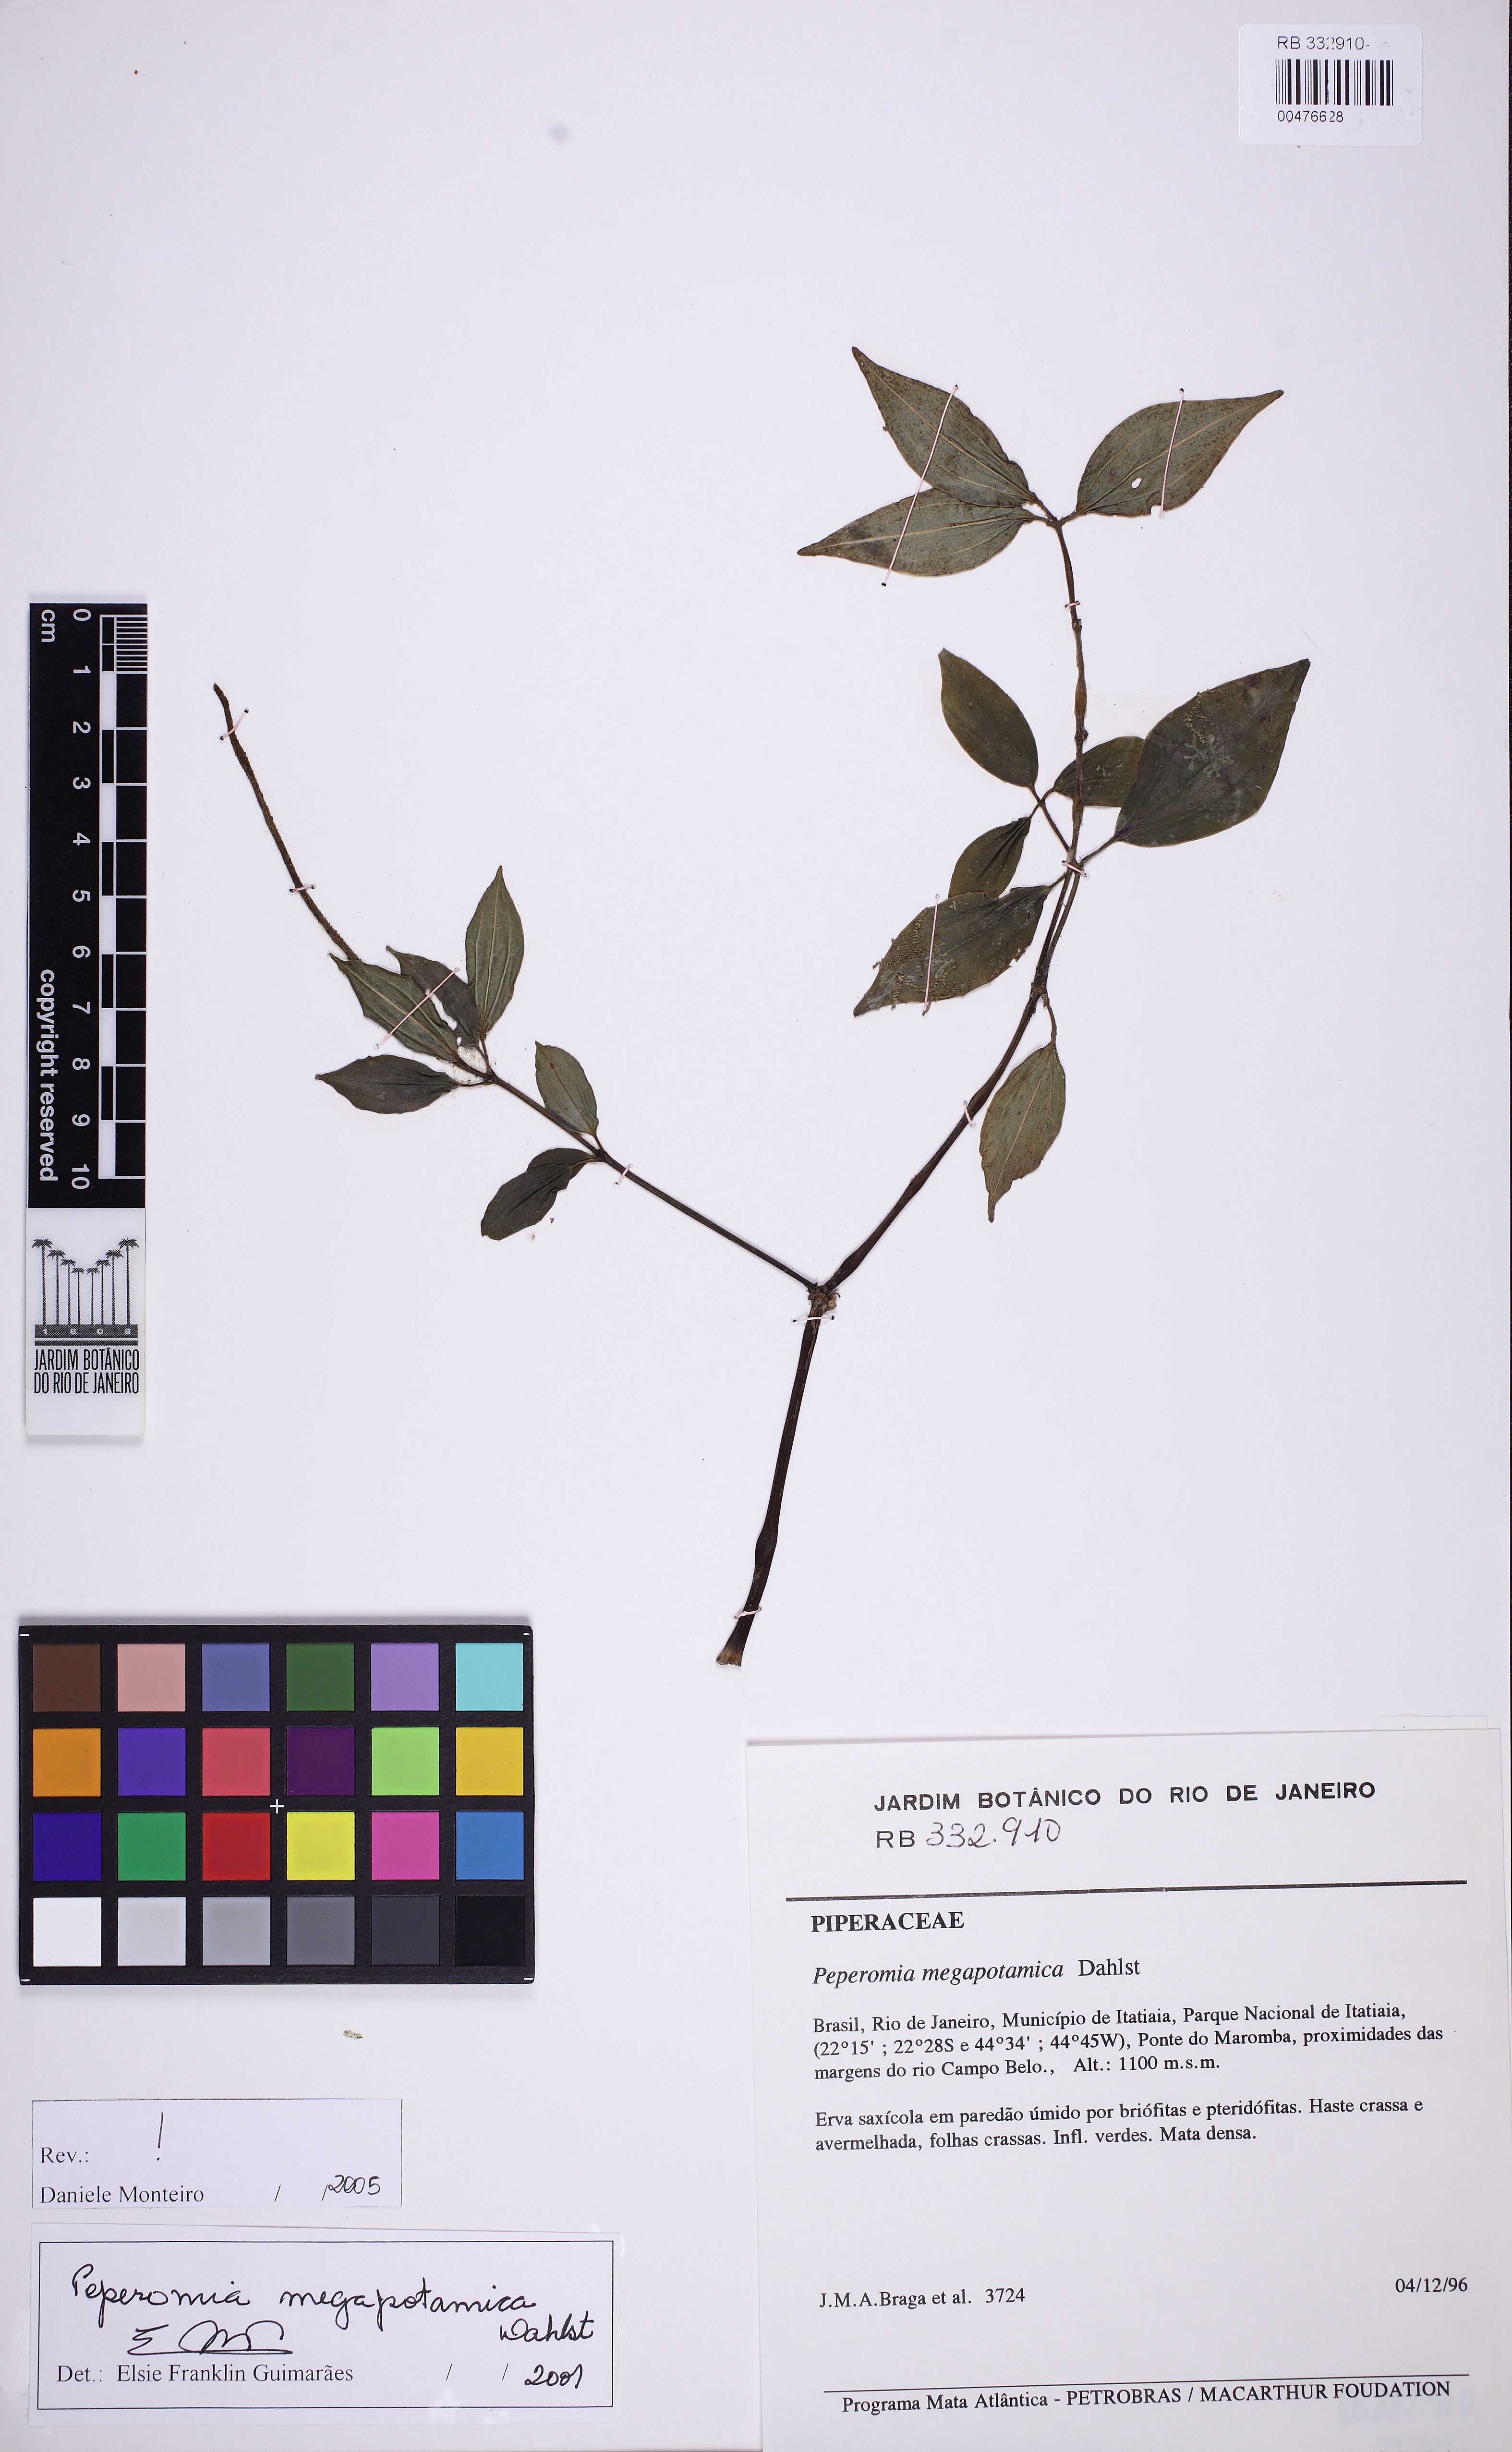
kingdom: Plantae
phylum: Tracheophyta
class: Magnoliopsida
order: Piperales
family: Piperaceae
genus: Peperomia
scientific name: Peperomia megapotamica
